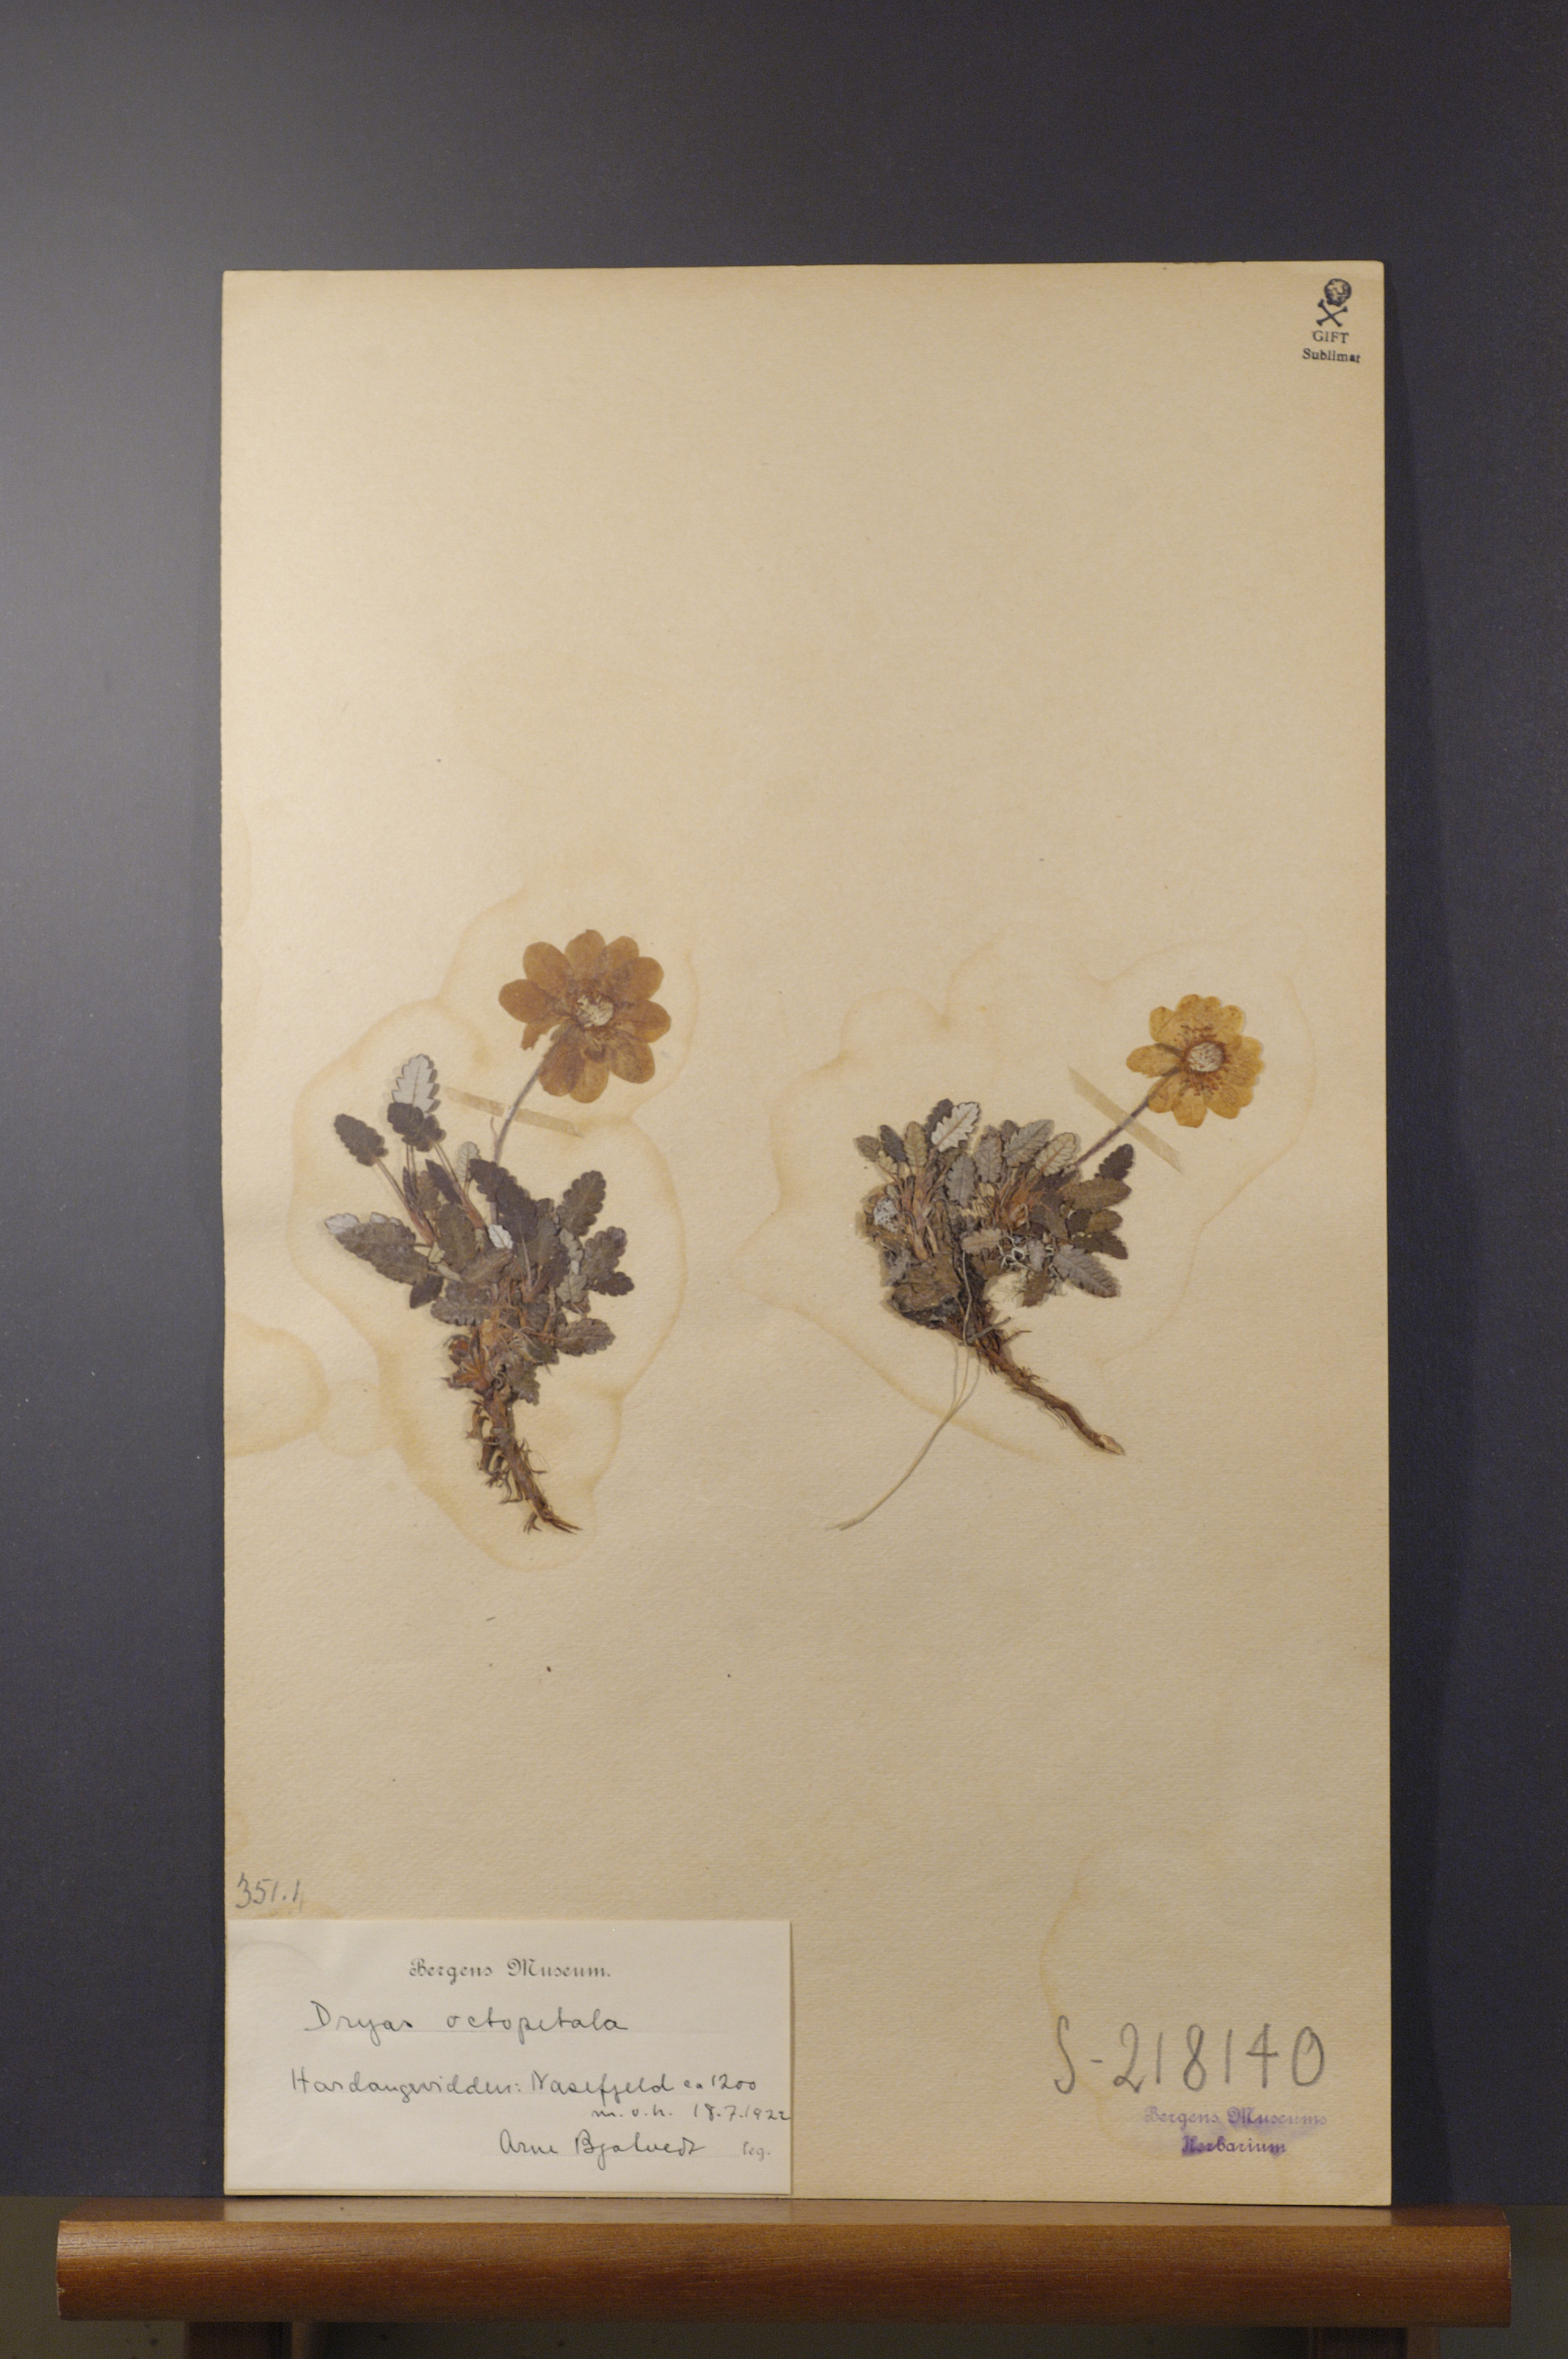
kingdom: Plantae
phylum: Tracheophyta
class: Magnoliopsida
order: Rosales
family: Rosaceae
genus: Dryas
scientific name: Dryas octopetala
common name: Eight-petal mountain-avens
